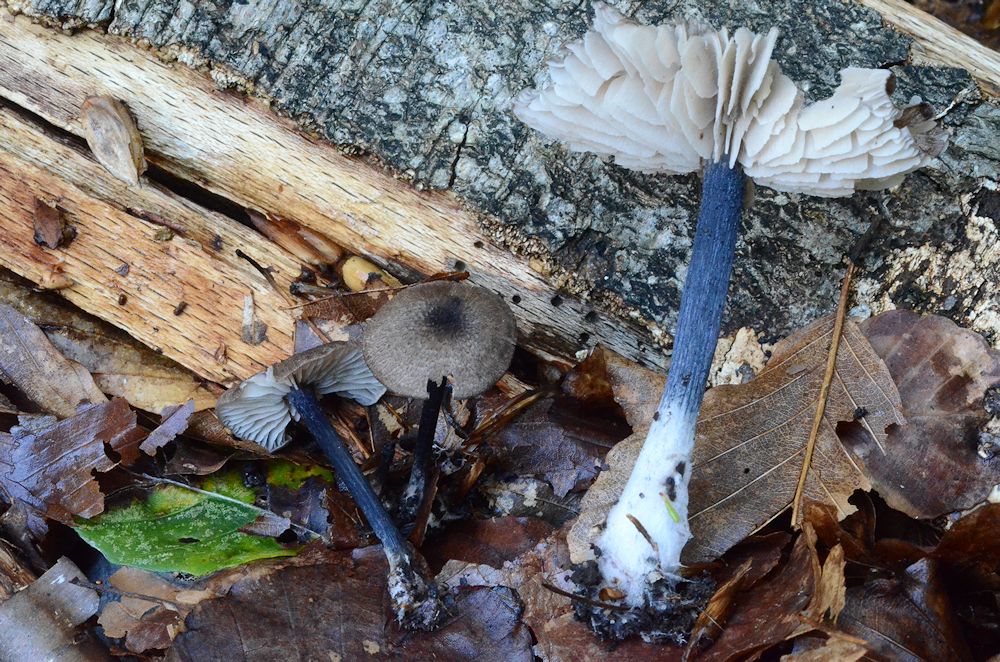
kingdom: Fungi
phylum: Basidiomycota
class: Agaricomycetes
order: Agaricales
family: Entolomataceae
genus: Entoloma
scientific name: Entoloma placidum
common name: bøge-rødblad
